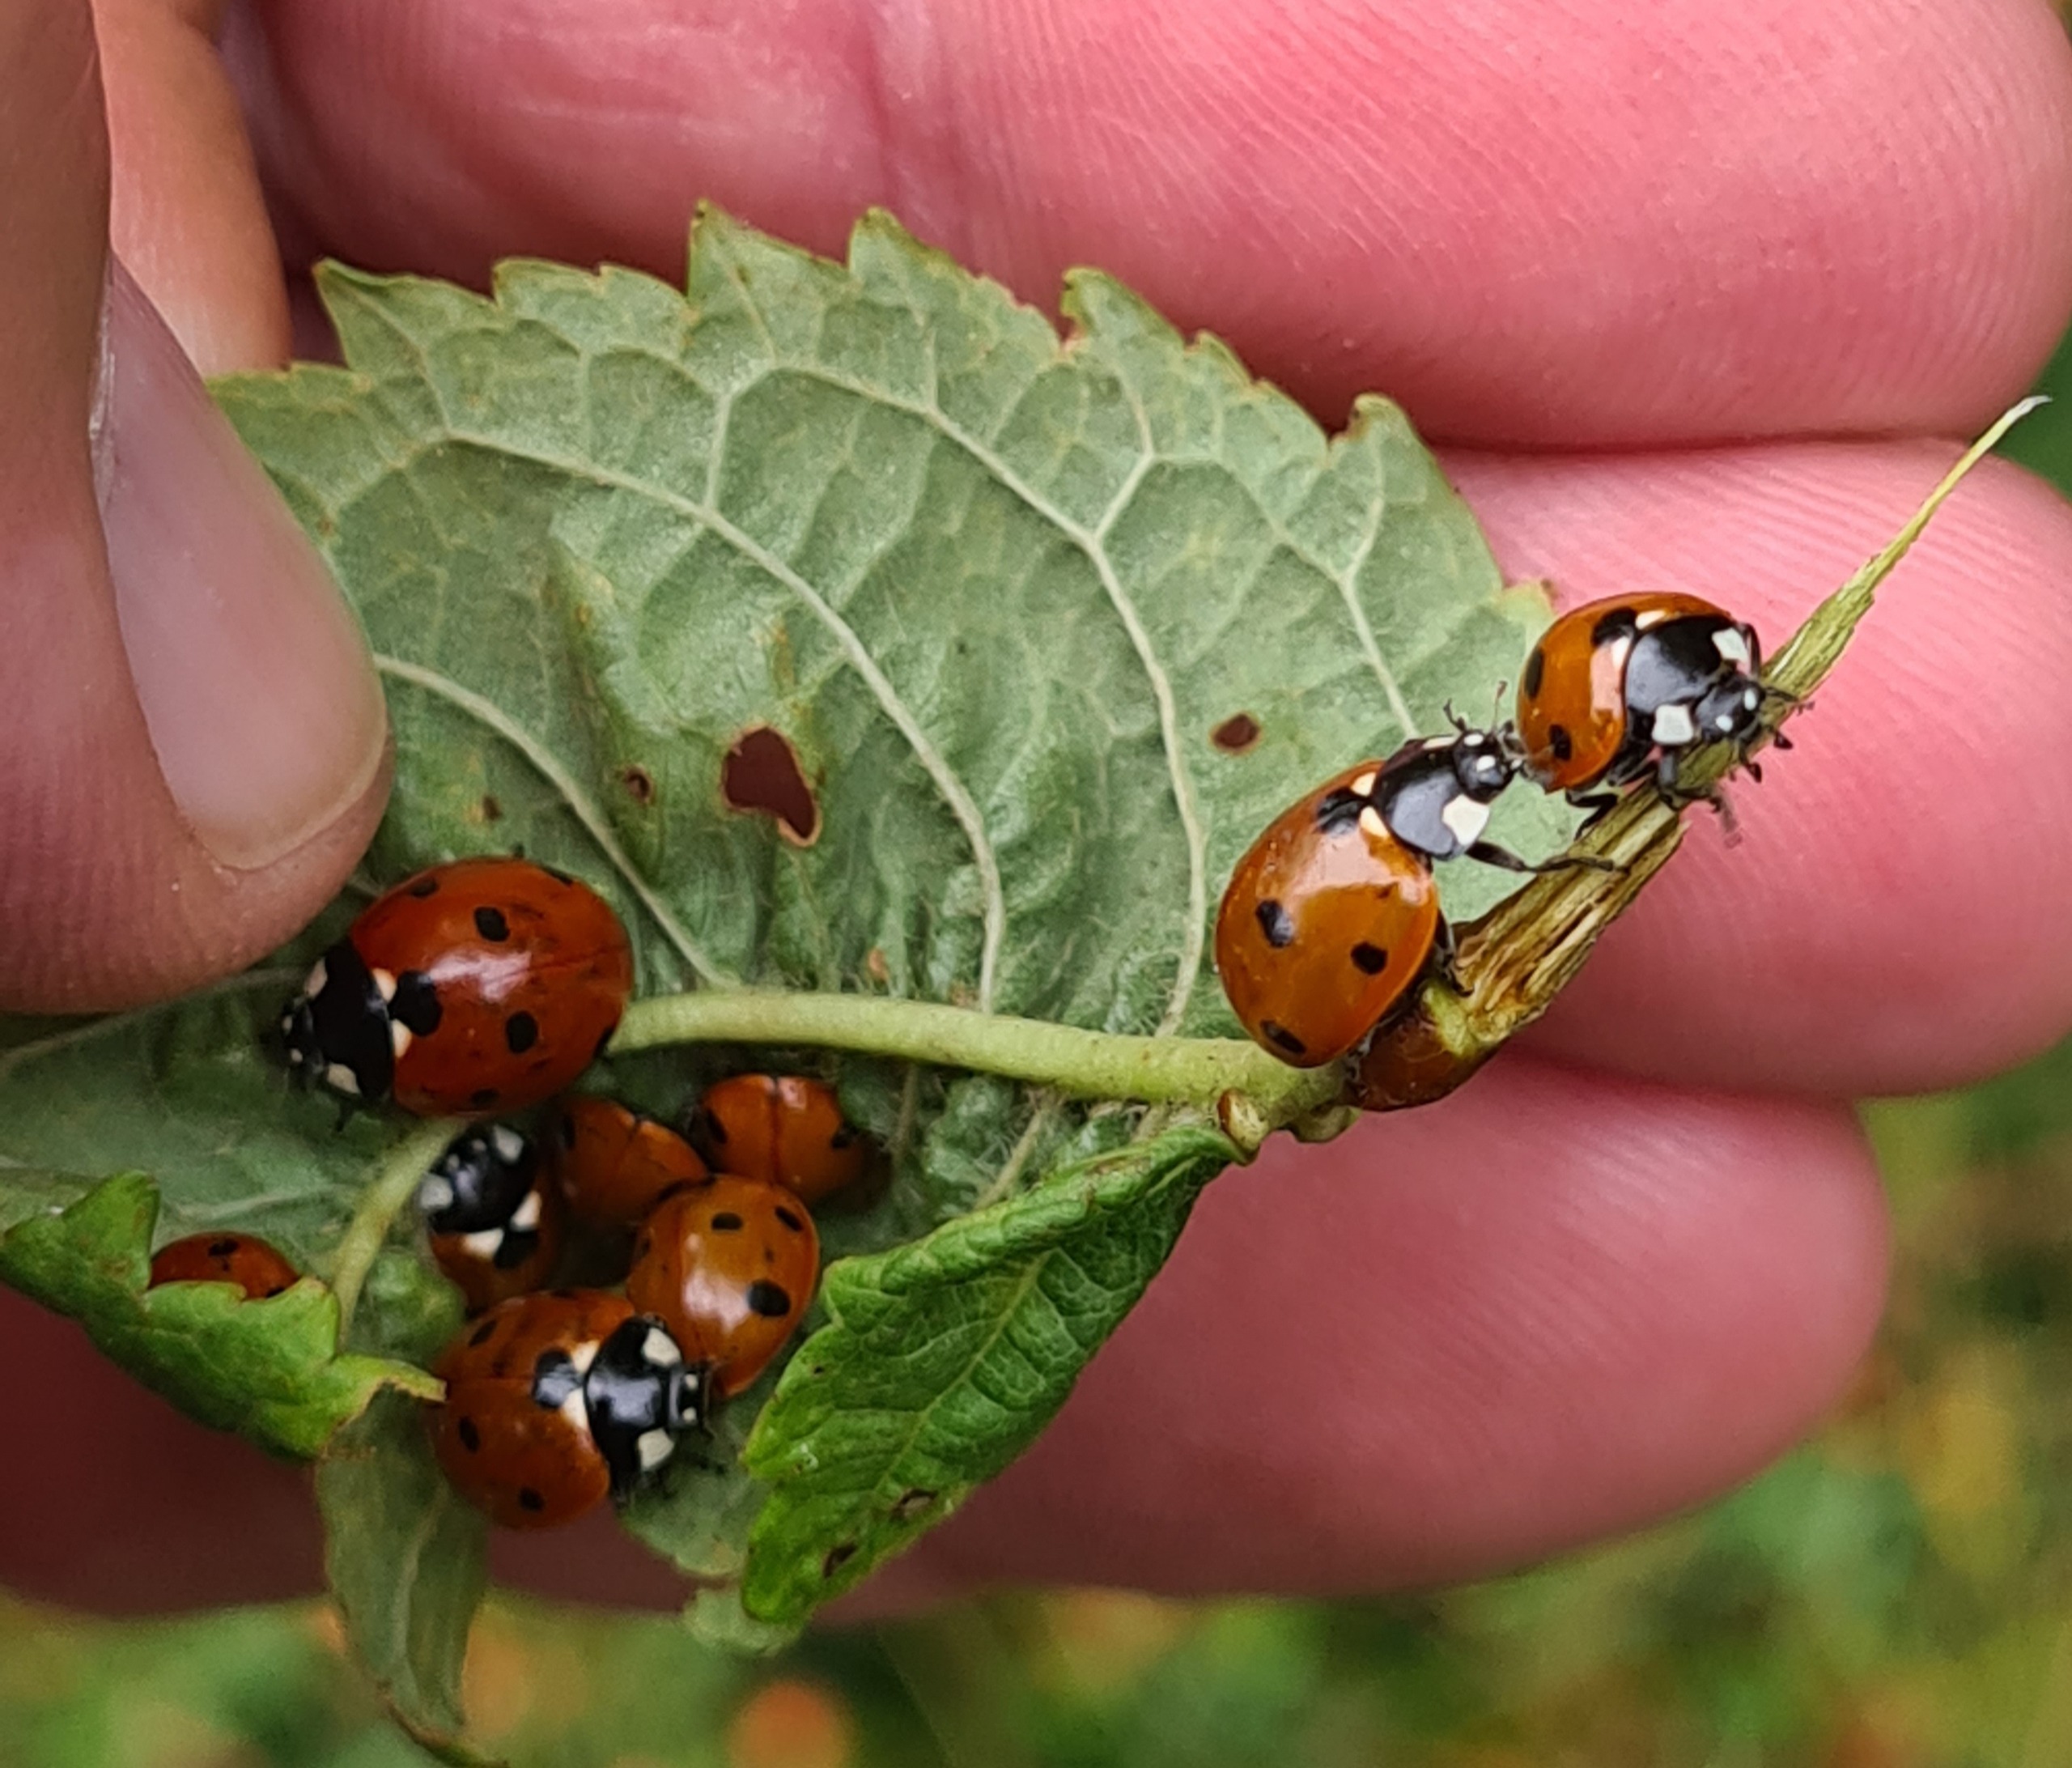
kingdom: Animalia
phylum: Arthropoda
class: Insecta
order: Coleoptera
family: Coccinellidae
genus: Coccinella
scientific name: Coccinella septempunctata
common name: Syvplettet mariehøne
